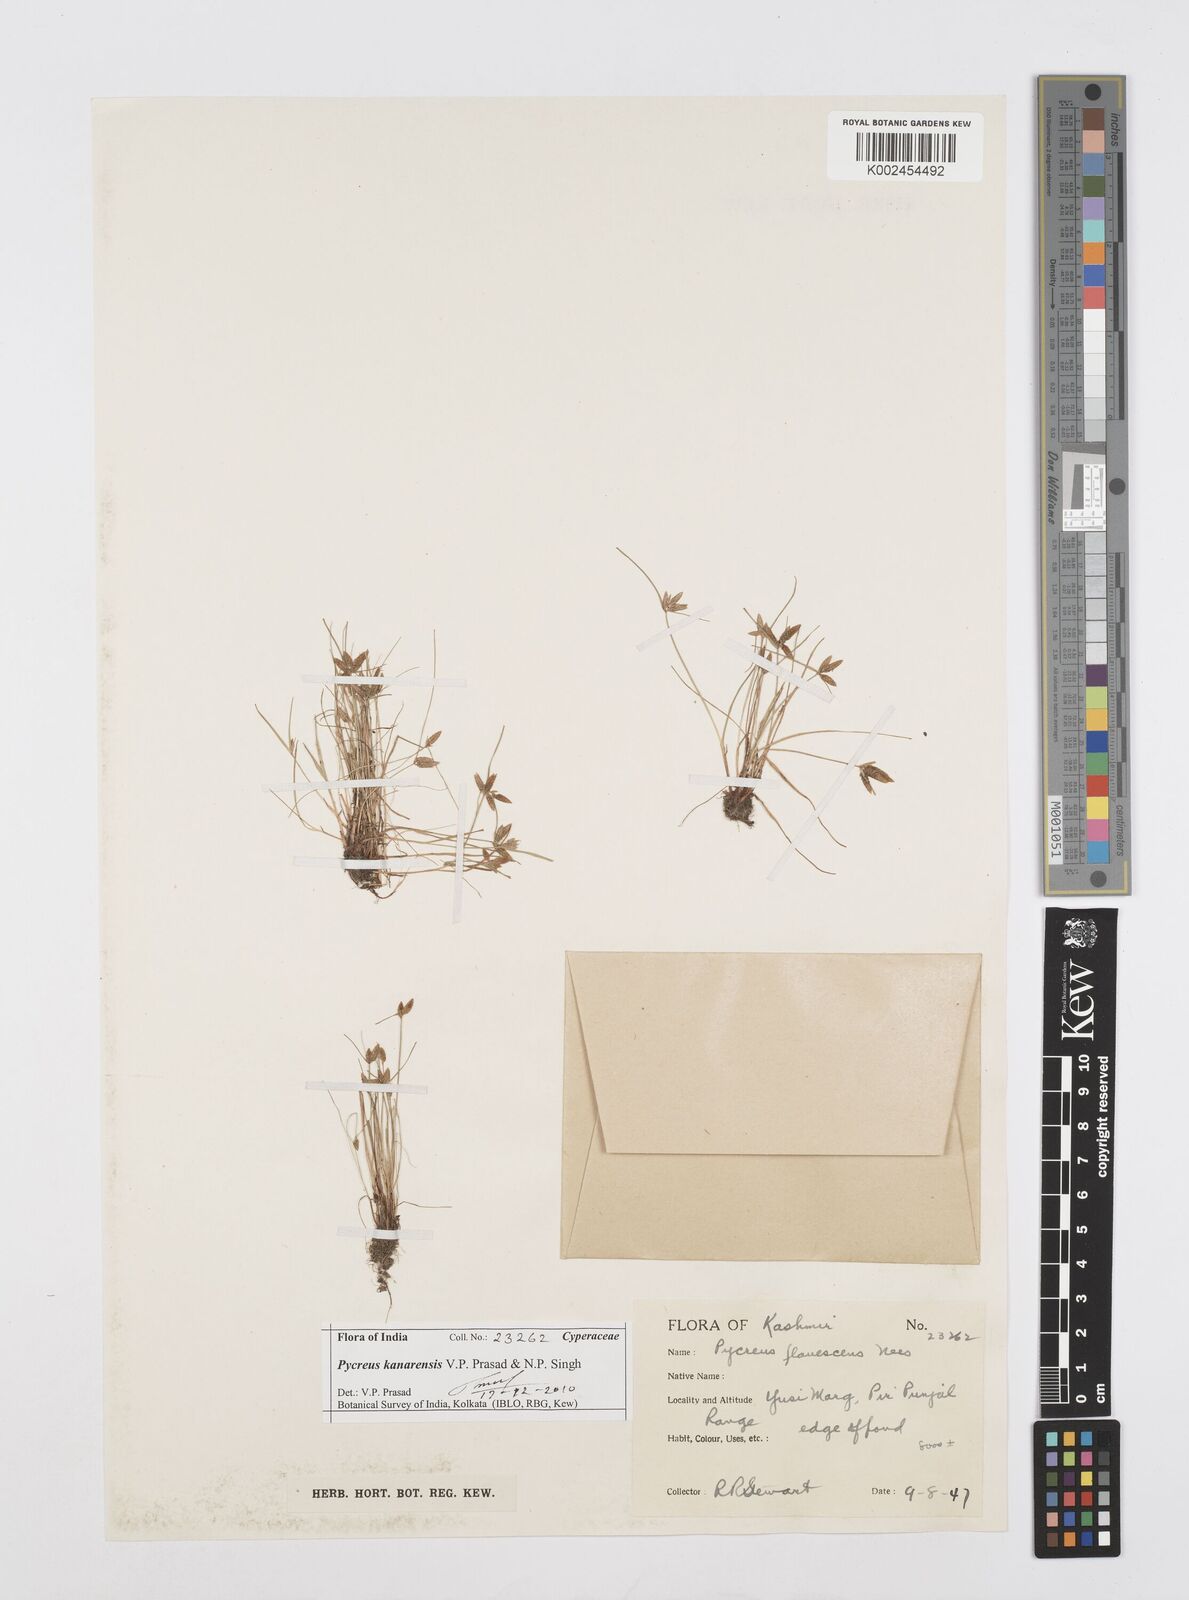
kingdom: Plantae
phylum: Tracheophyta
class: Liliopsida
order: Poales
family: Cyperaceae
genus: Cyperus
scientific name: Cyperus flavescens
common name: Yellow galingale
